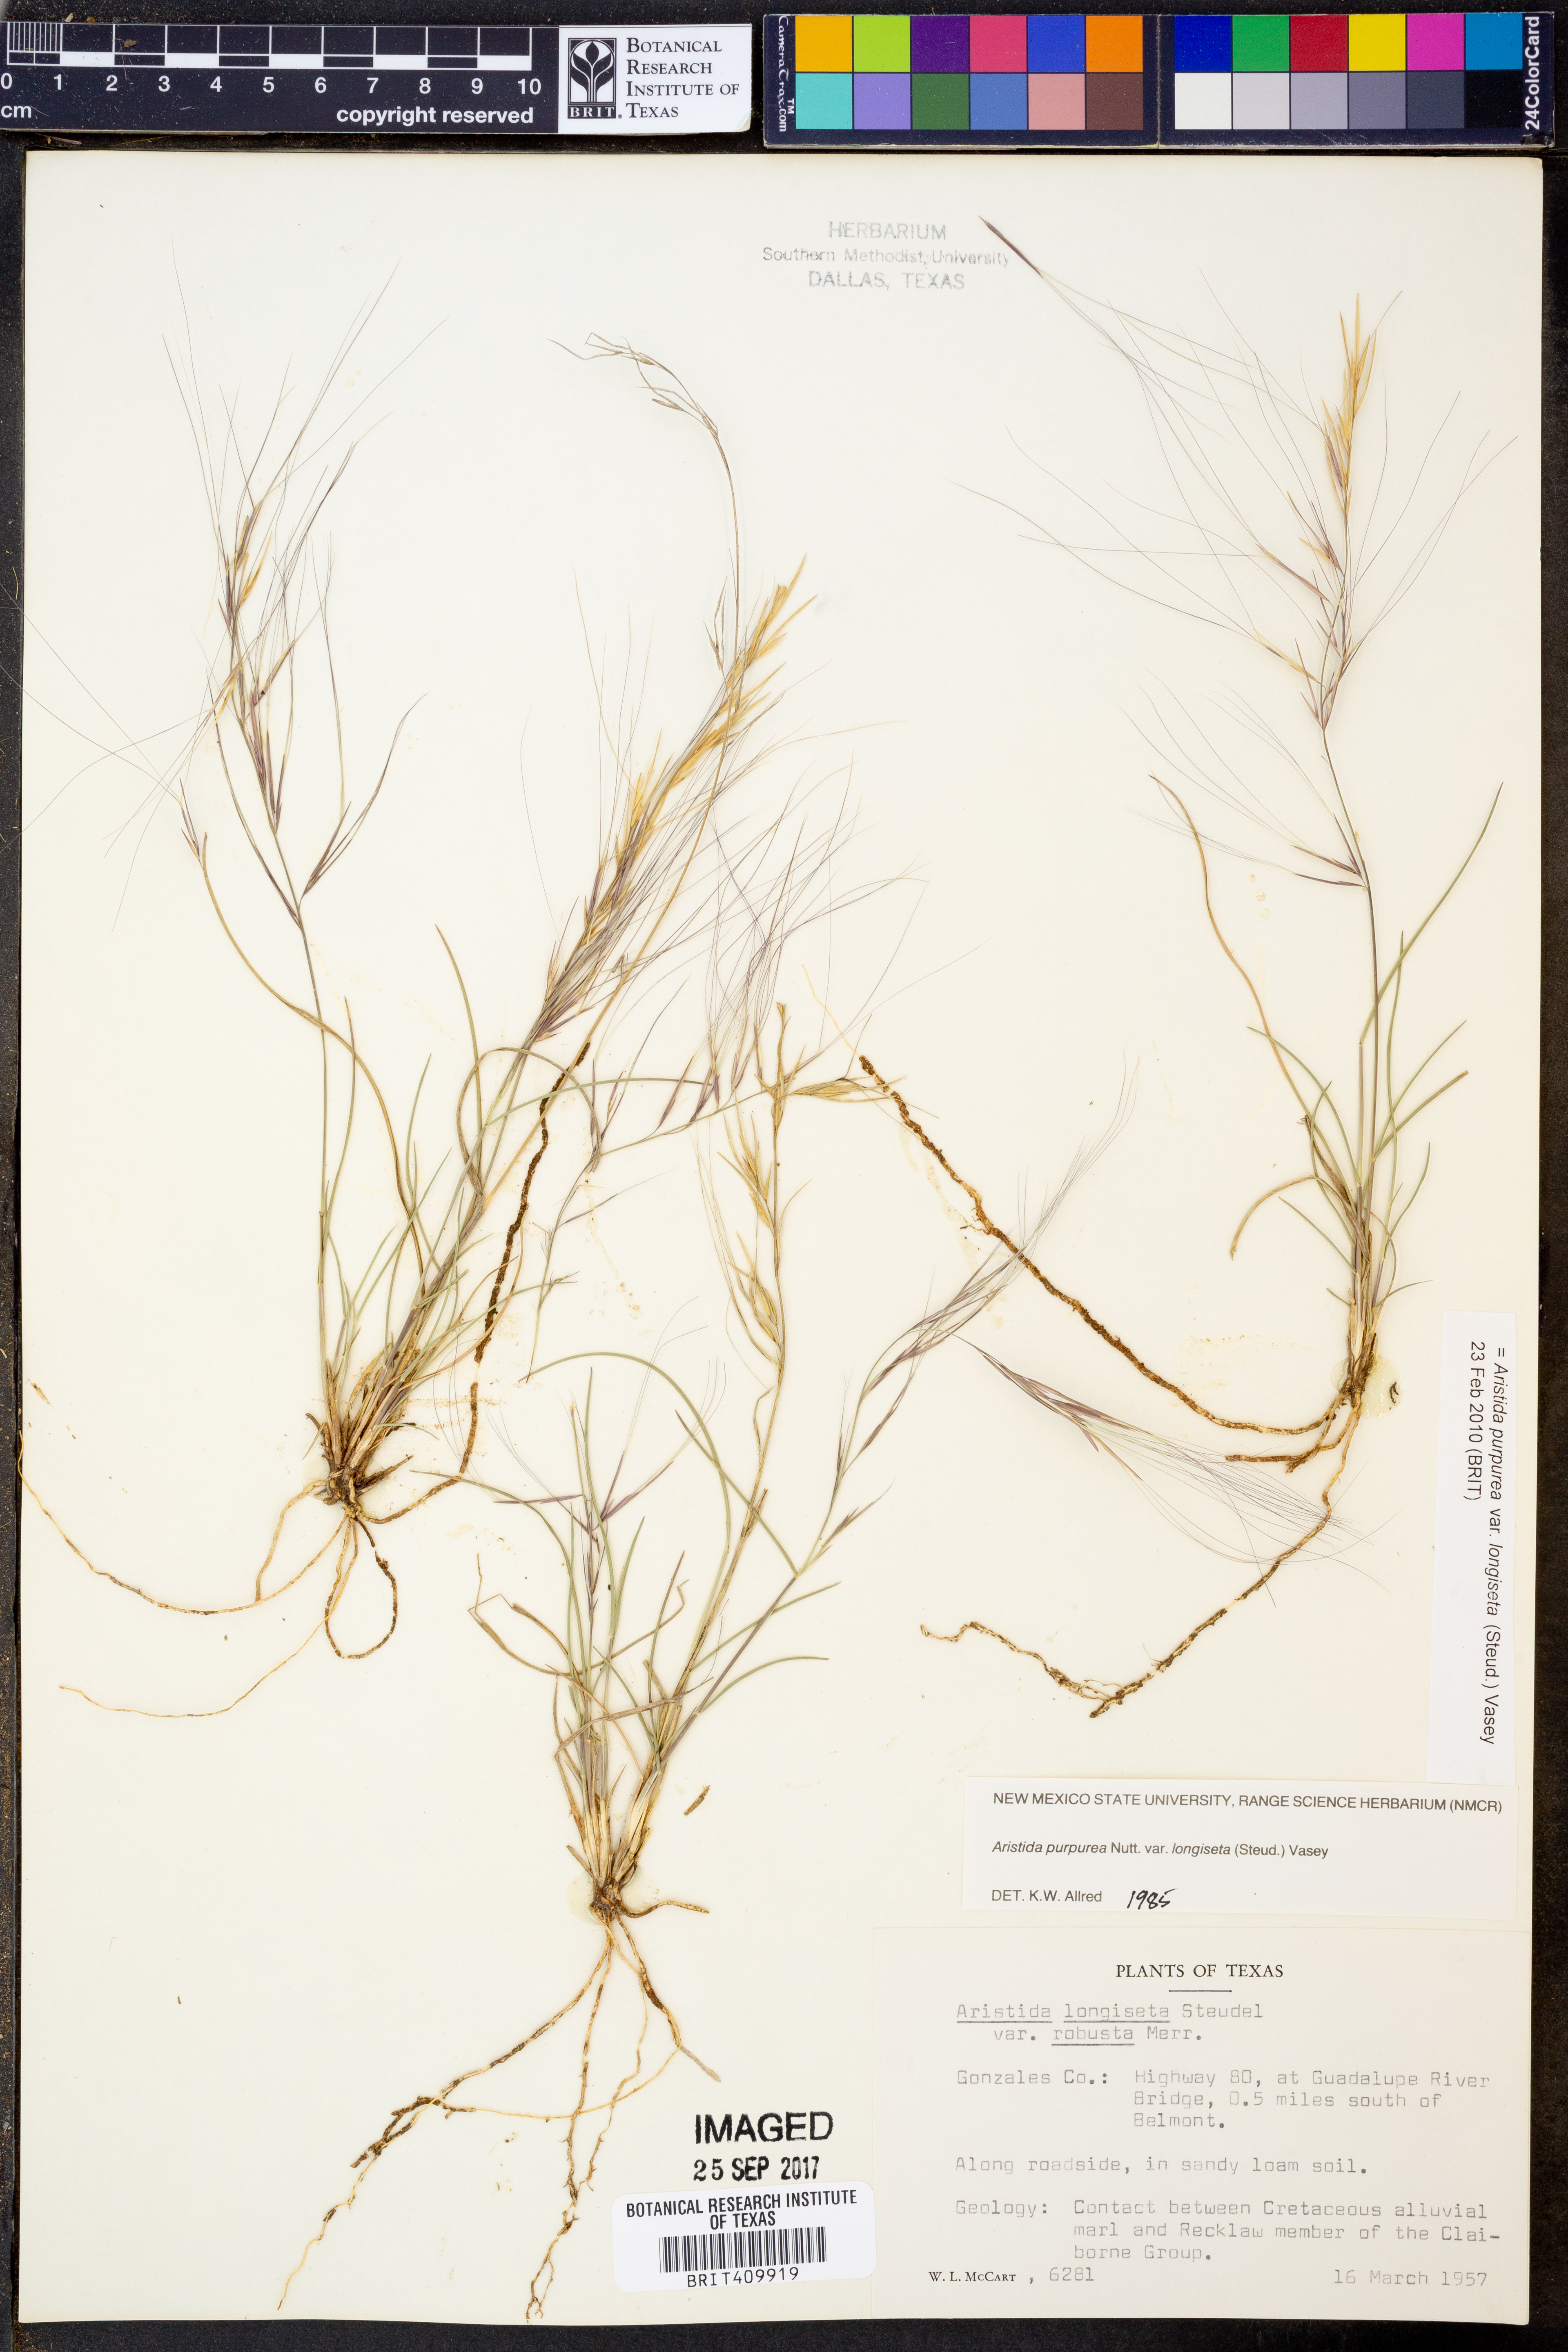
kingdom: Plantae
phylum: Tracheophyta
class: Liliopsida
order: Poales
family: Poaceae
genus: Aristida
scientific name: Aristida longiseta
